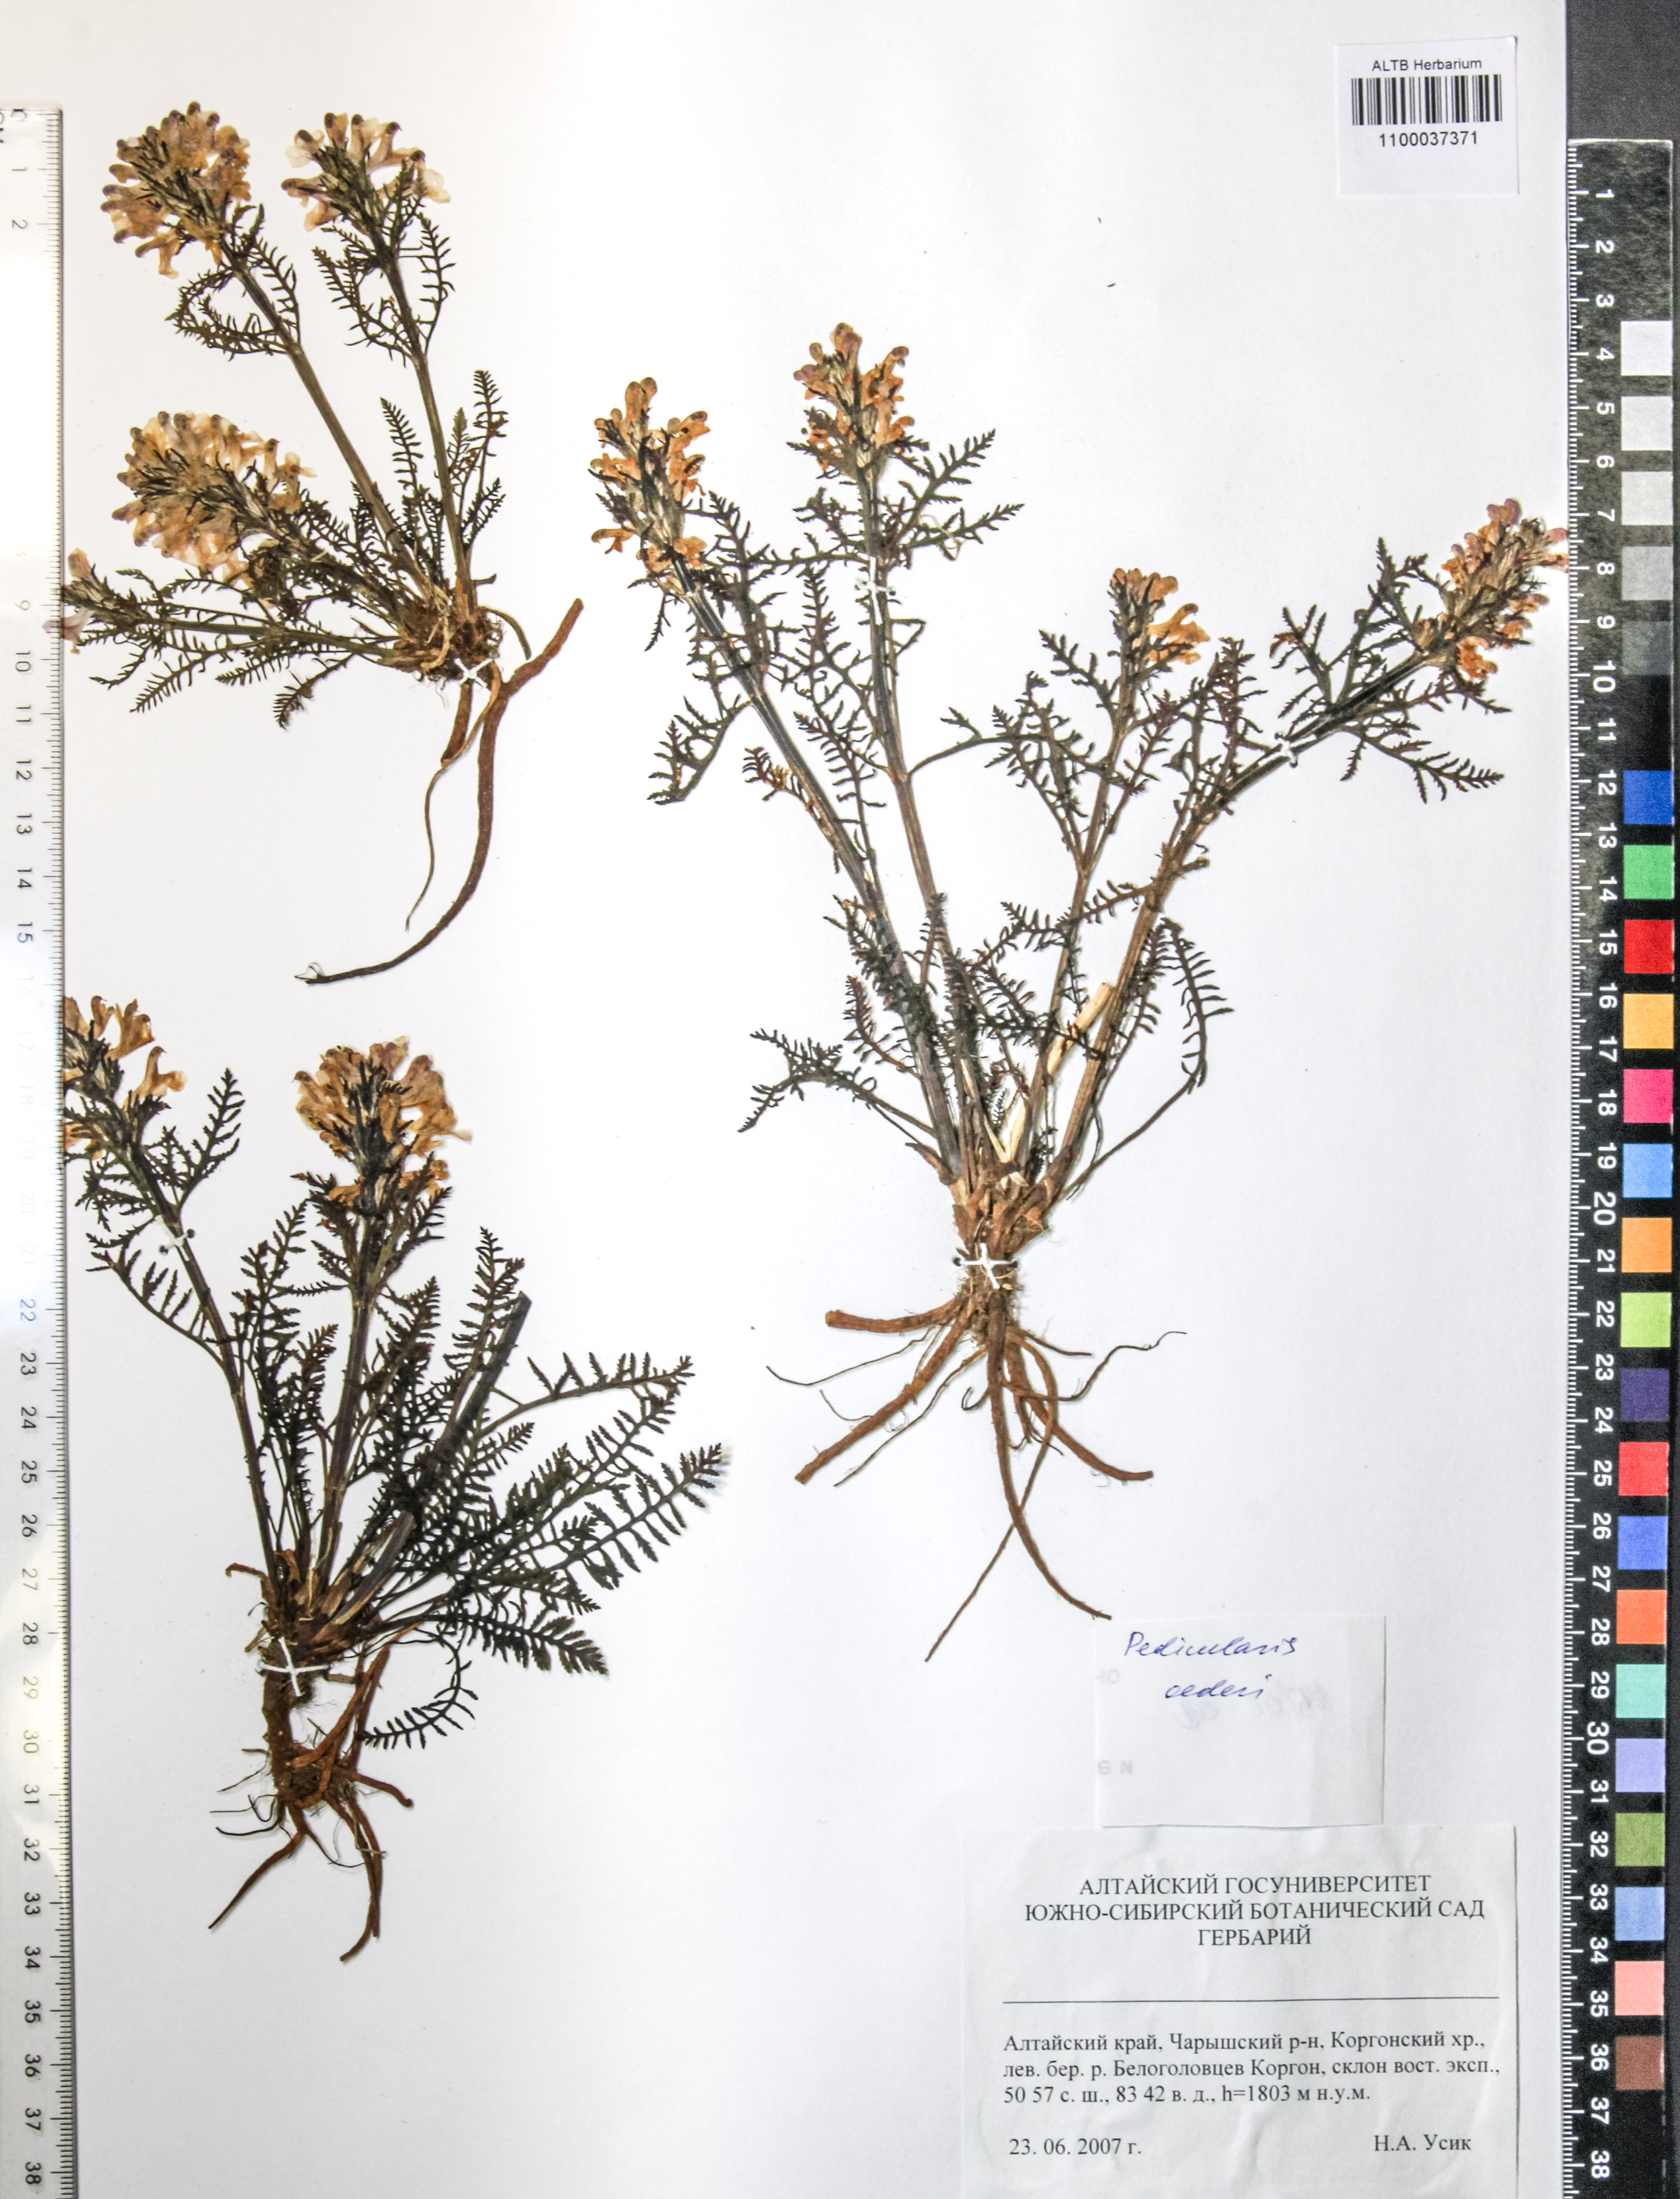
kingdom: Plantae
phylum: Tracheophyta
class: Magnoliopsida
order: Caryophyllales
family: Caryophyllaceae
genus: Silene
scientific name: Silene graminifolia
